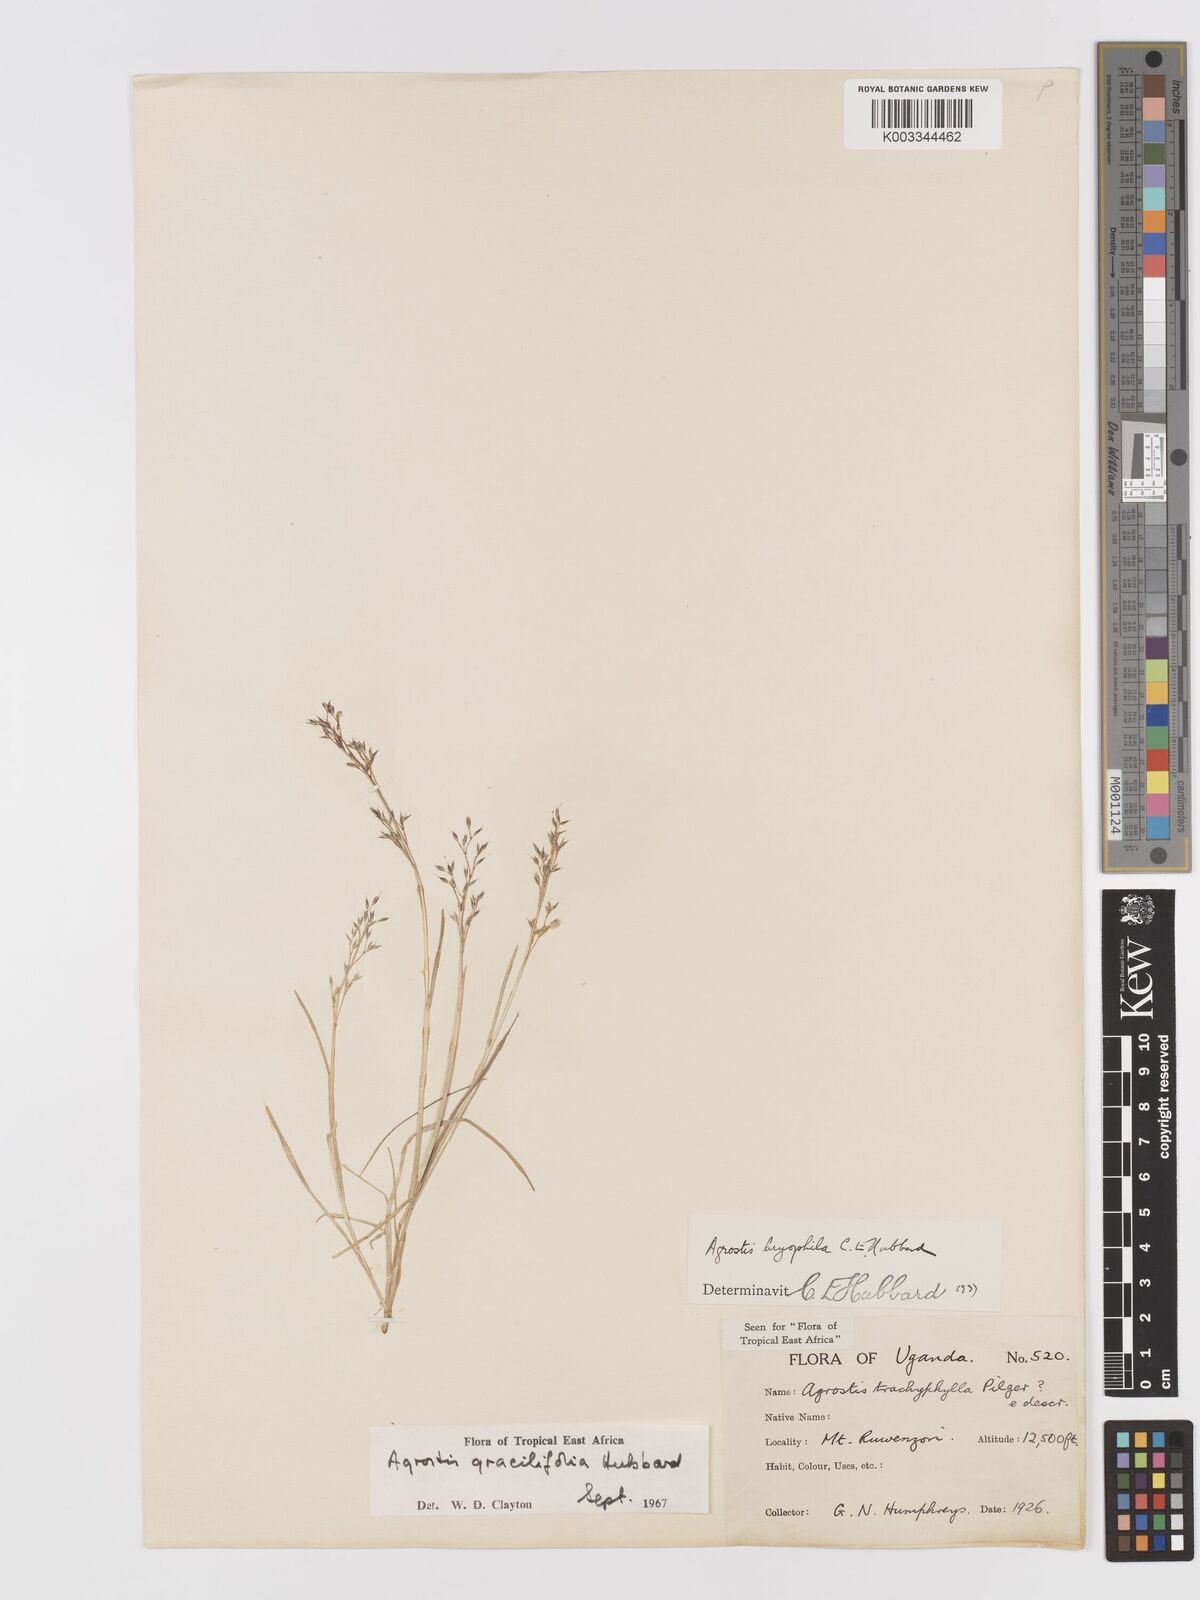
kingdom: Plantae
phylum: Tracheophyta
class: Liliopsida
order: Poales
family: Poaceae
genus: Agrostis
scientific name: Agrostis gracilifolia
